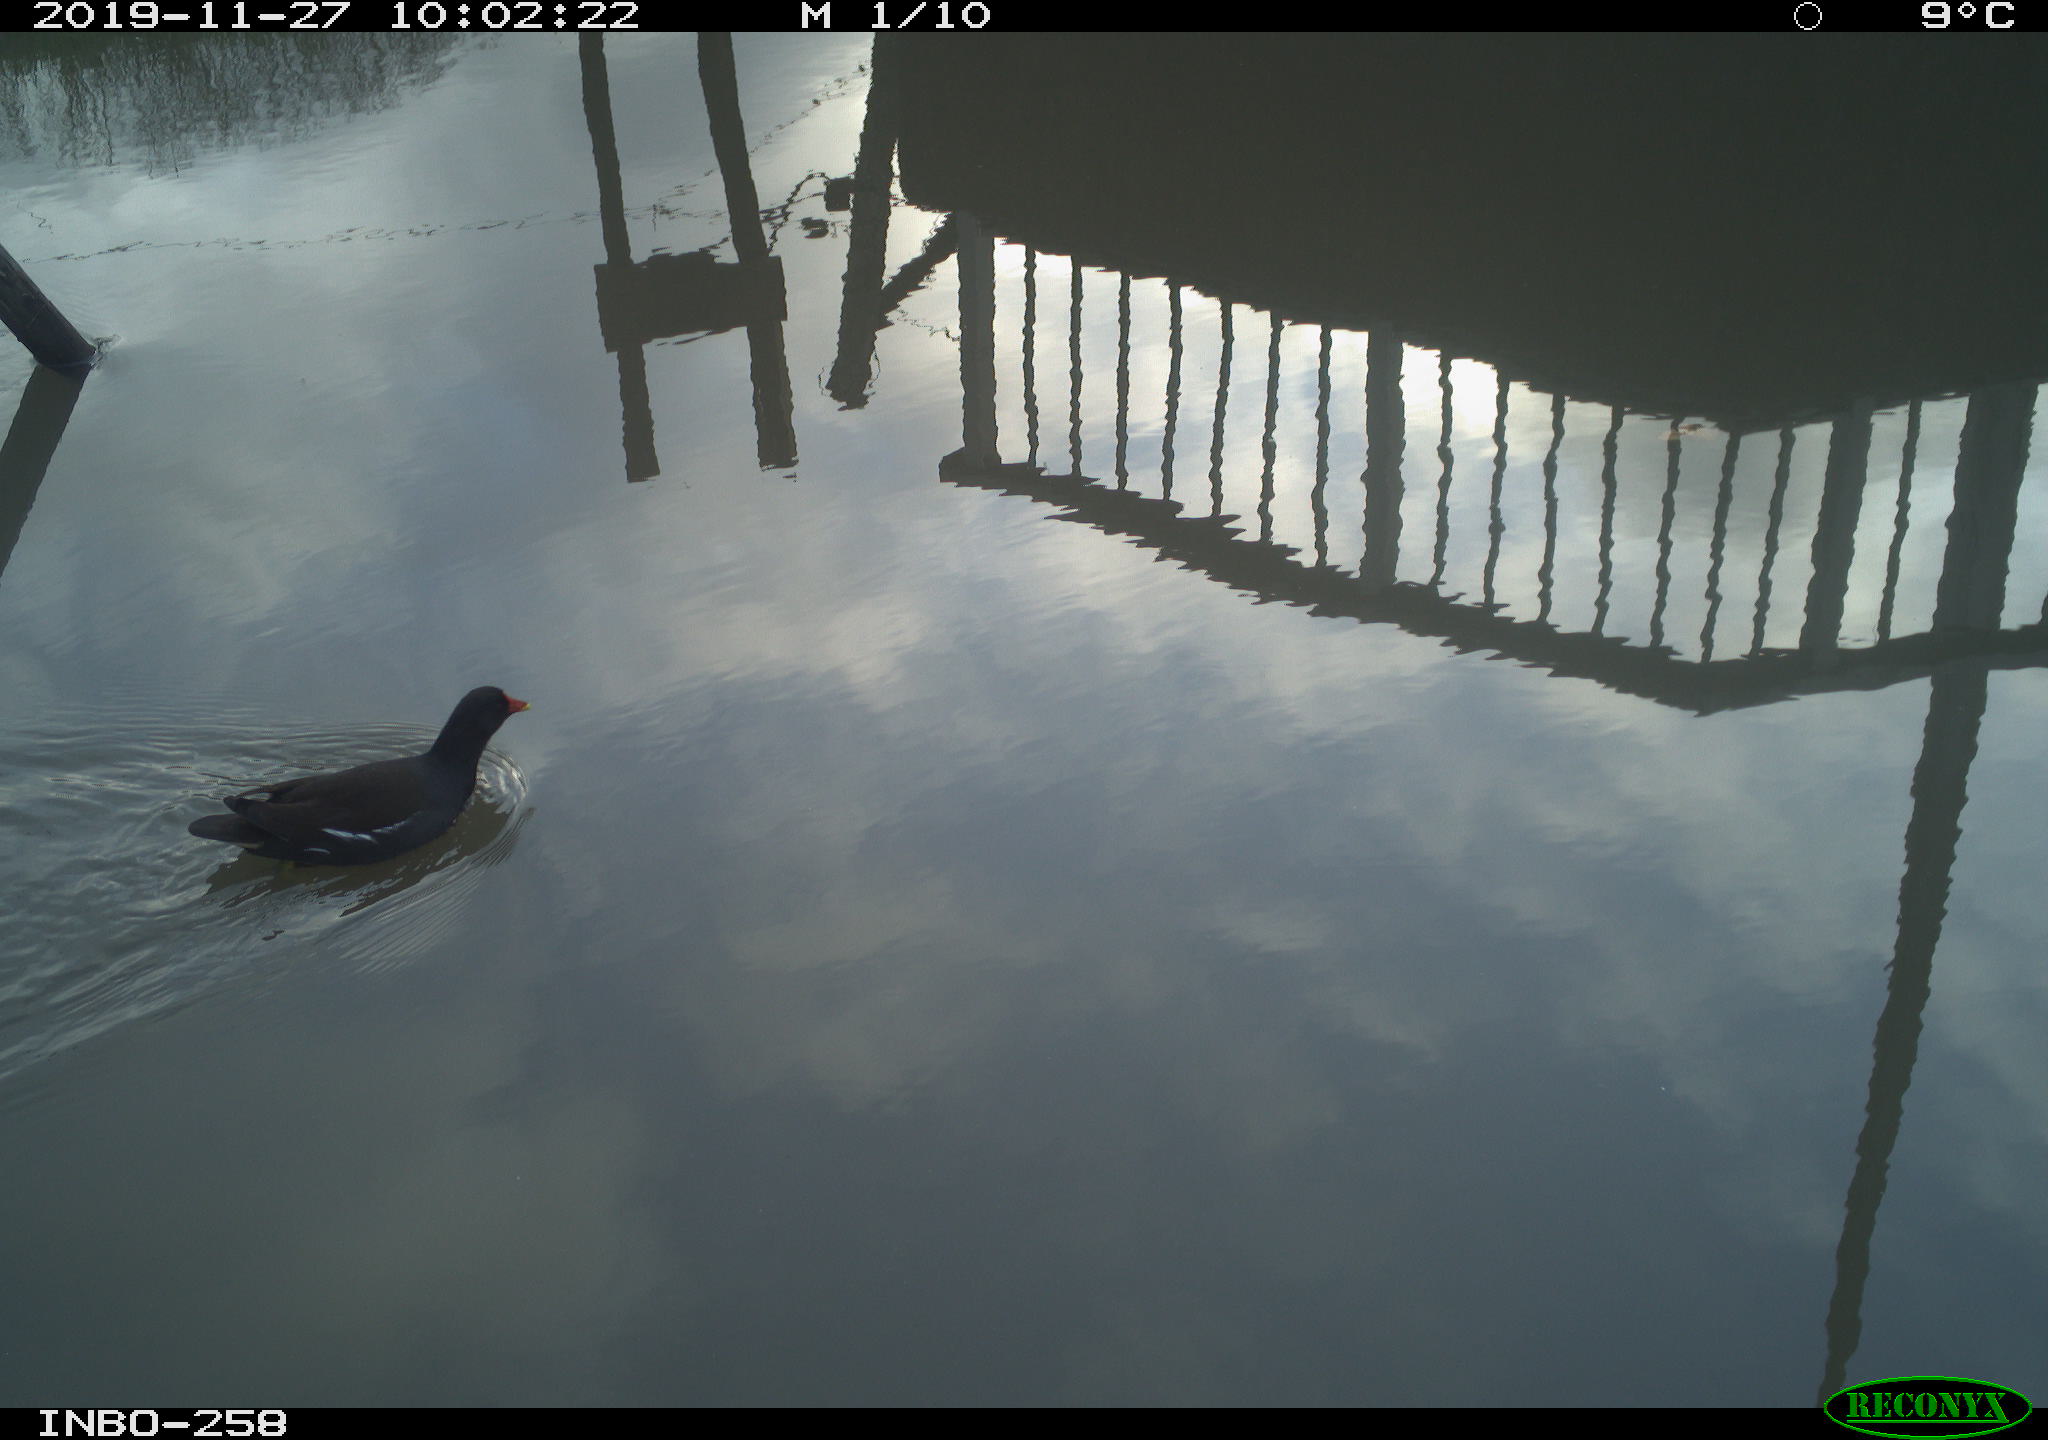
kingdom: Animalia
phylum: Chordata
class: Aves
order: Gruiformes
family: Rallidae
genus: Gallinula
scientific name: Gallinula chloropus
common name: Common moorhen
